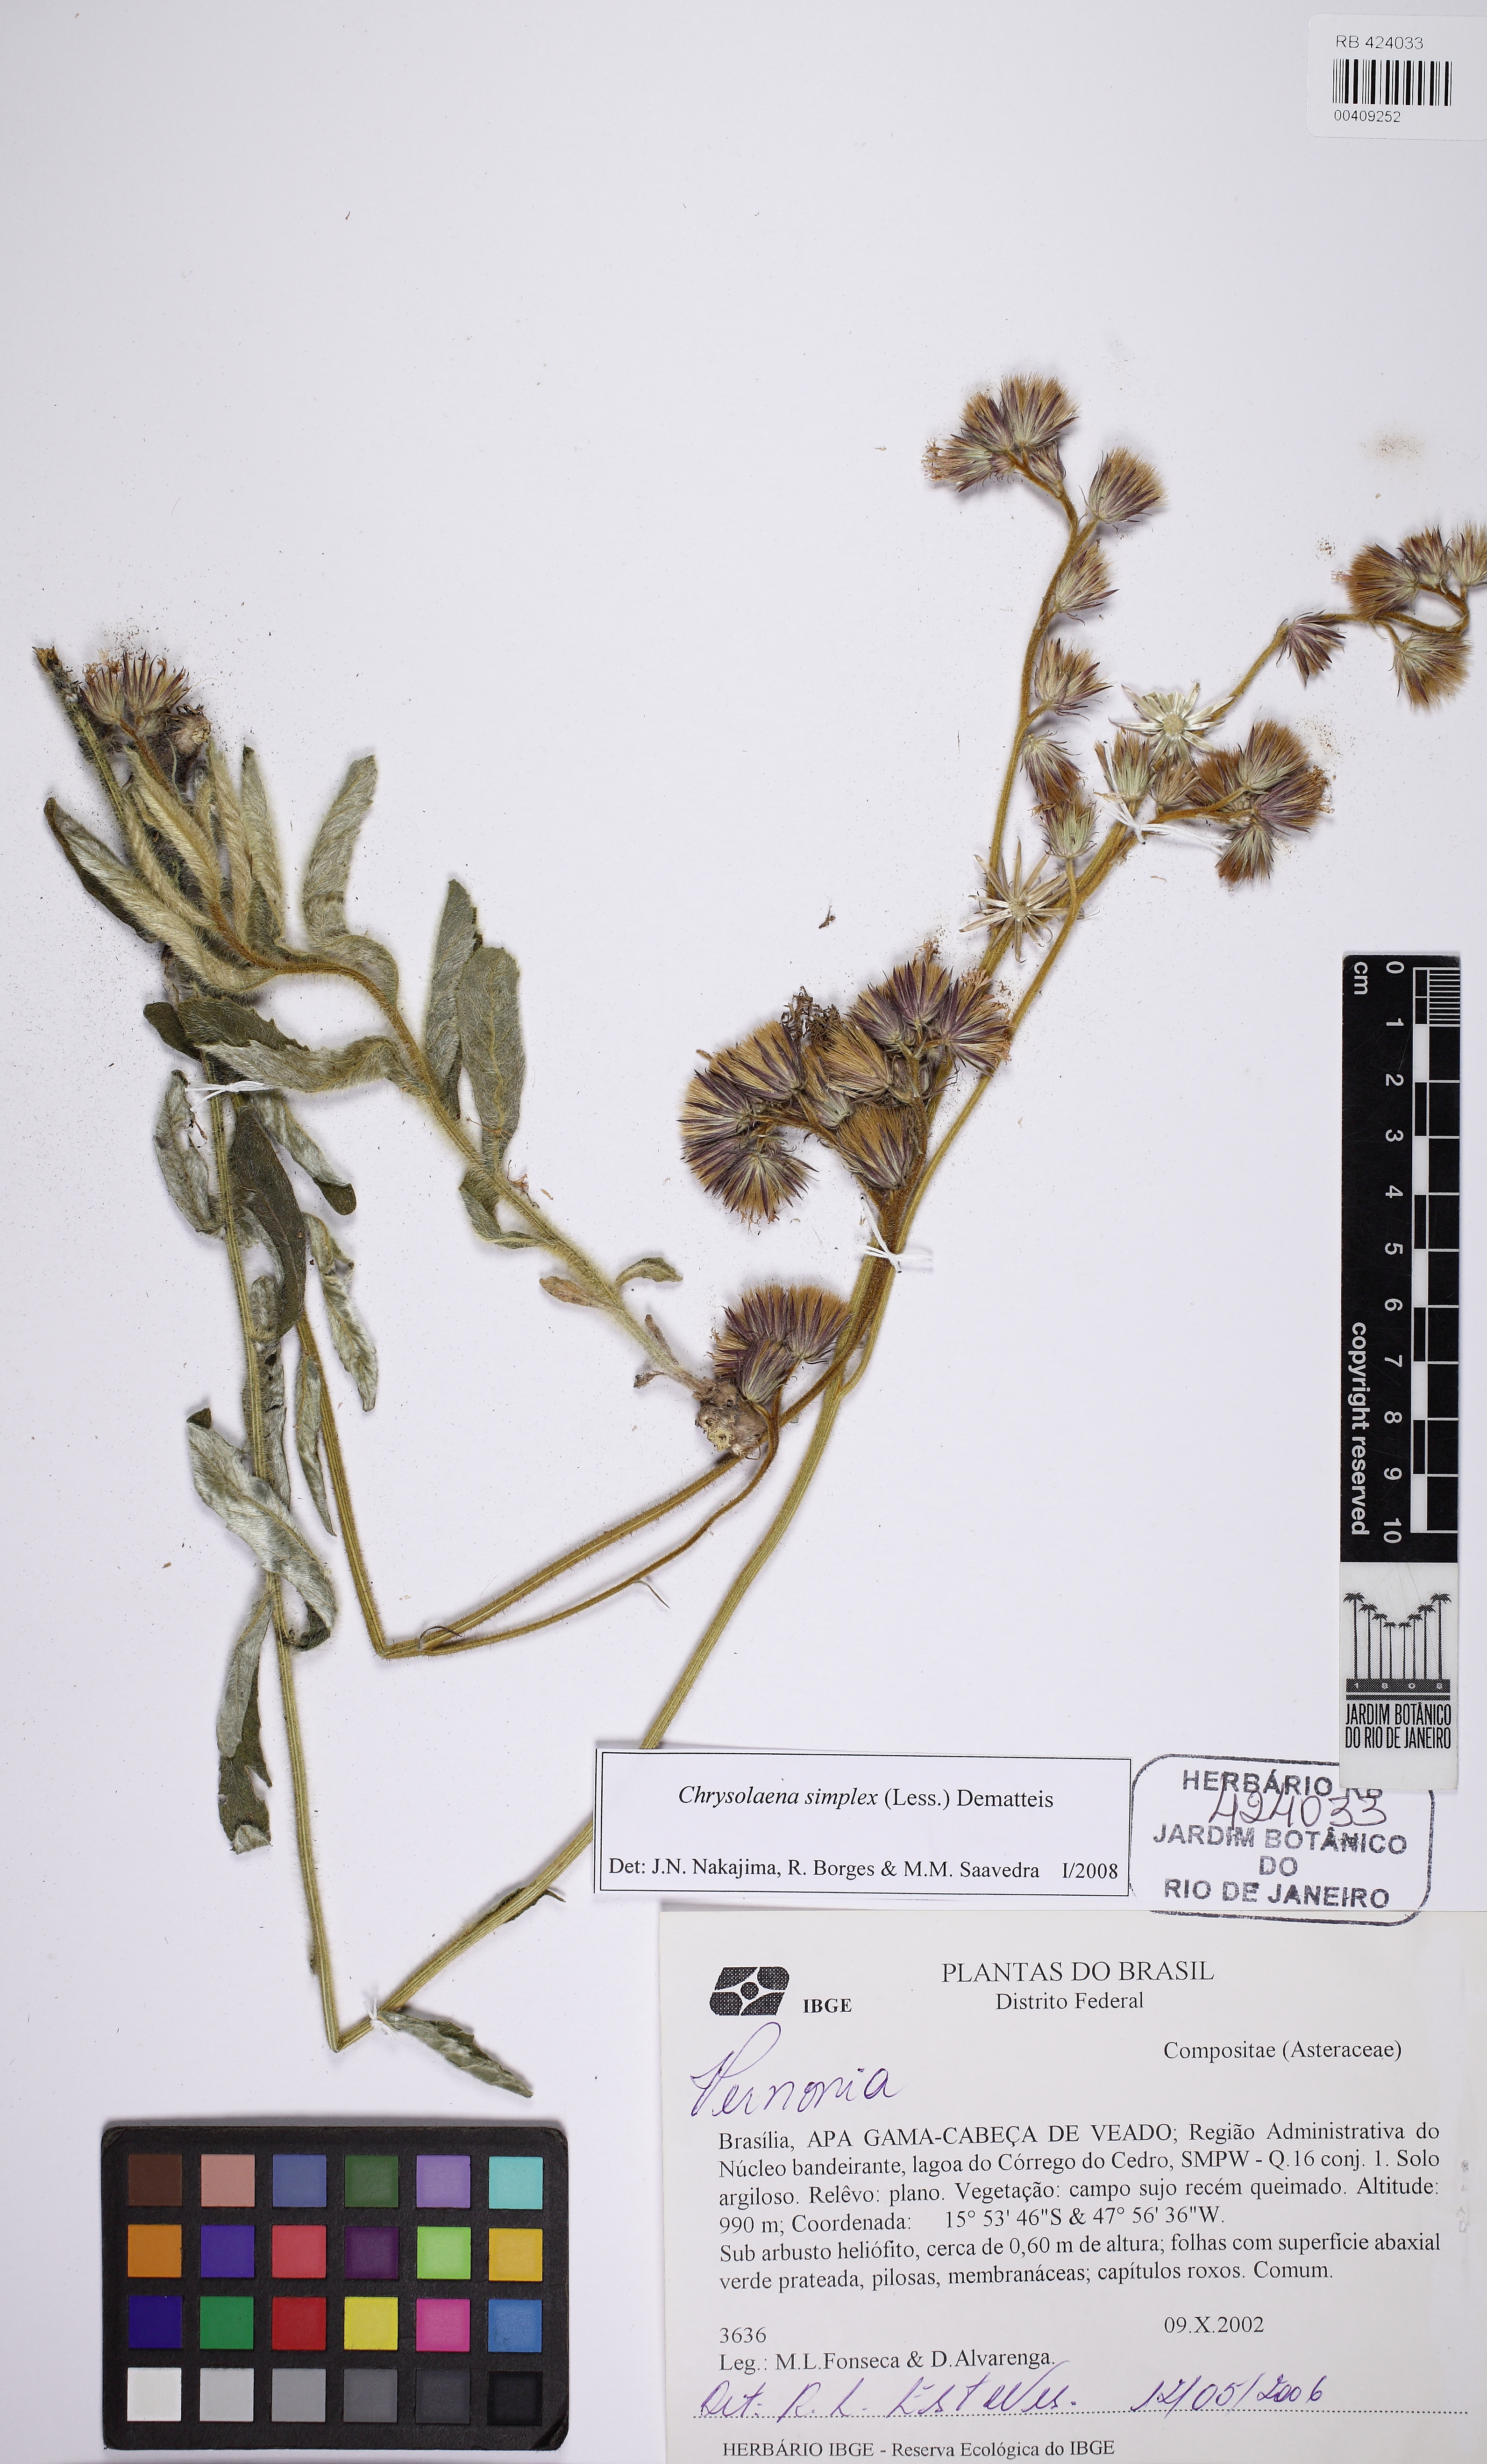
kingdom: Plantae
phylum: Tracheophyta
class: Magnoliopsida
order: Asterales
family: Asteraceae
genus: Chrysolaena
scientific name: Chrysolaena simplex
